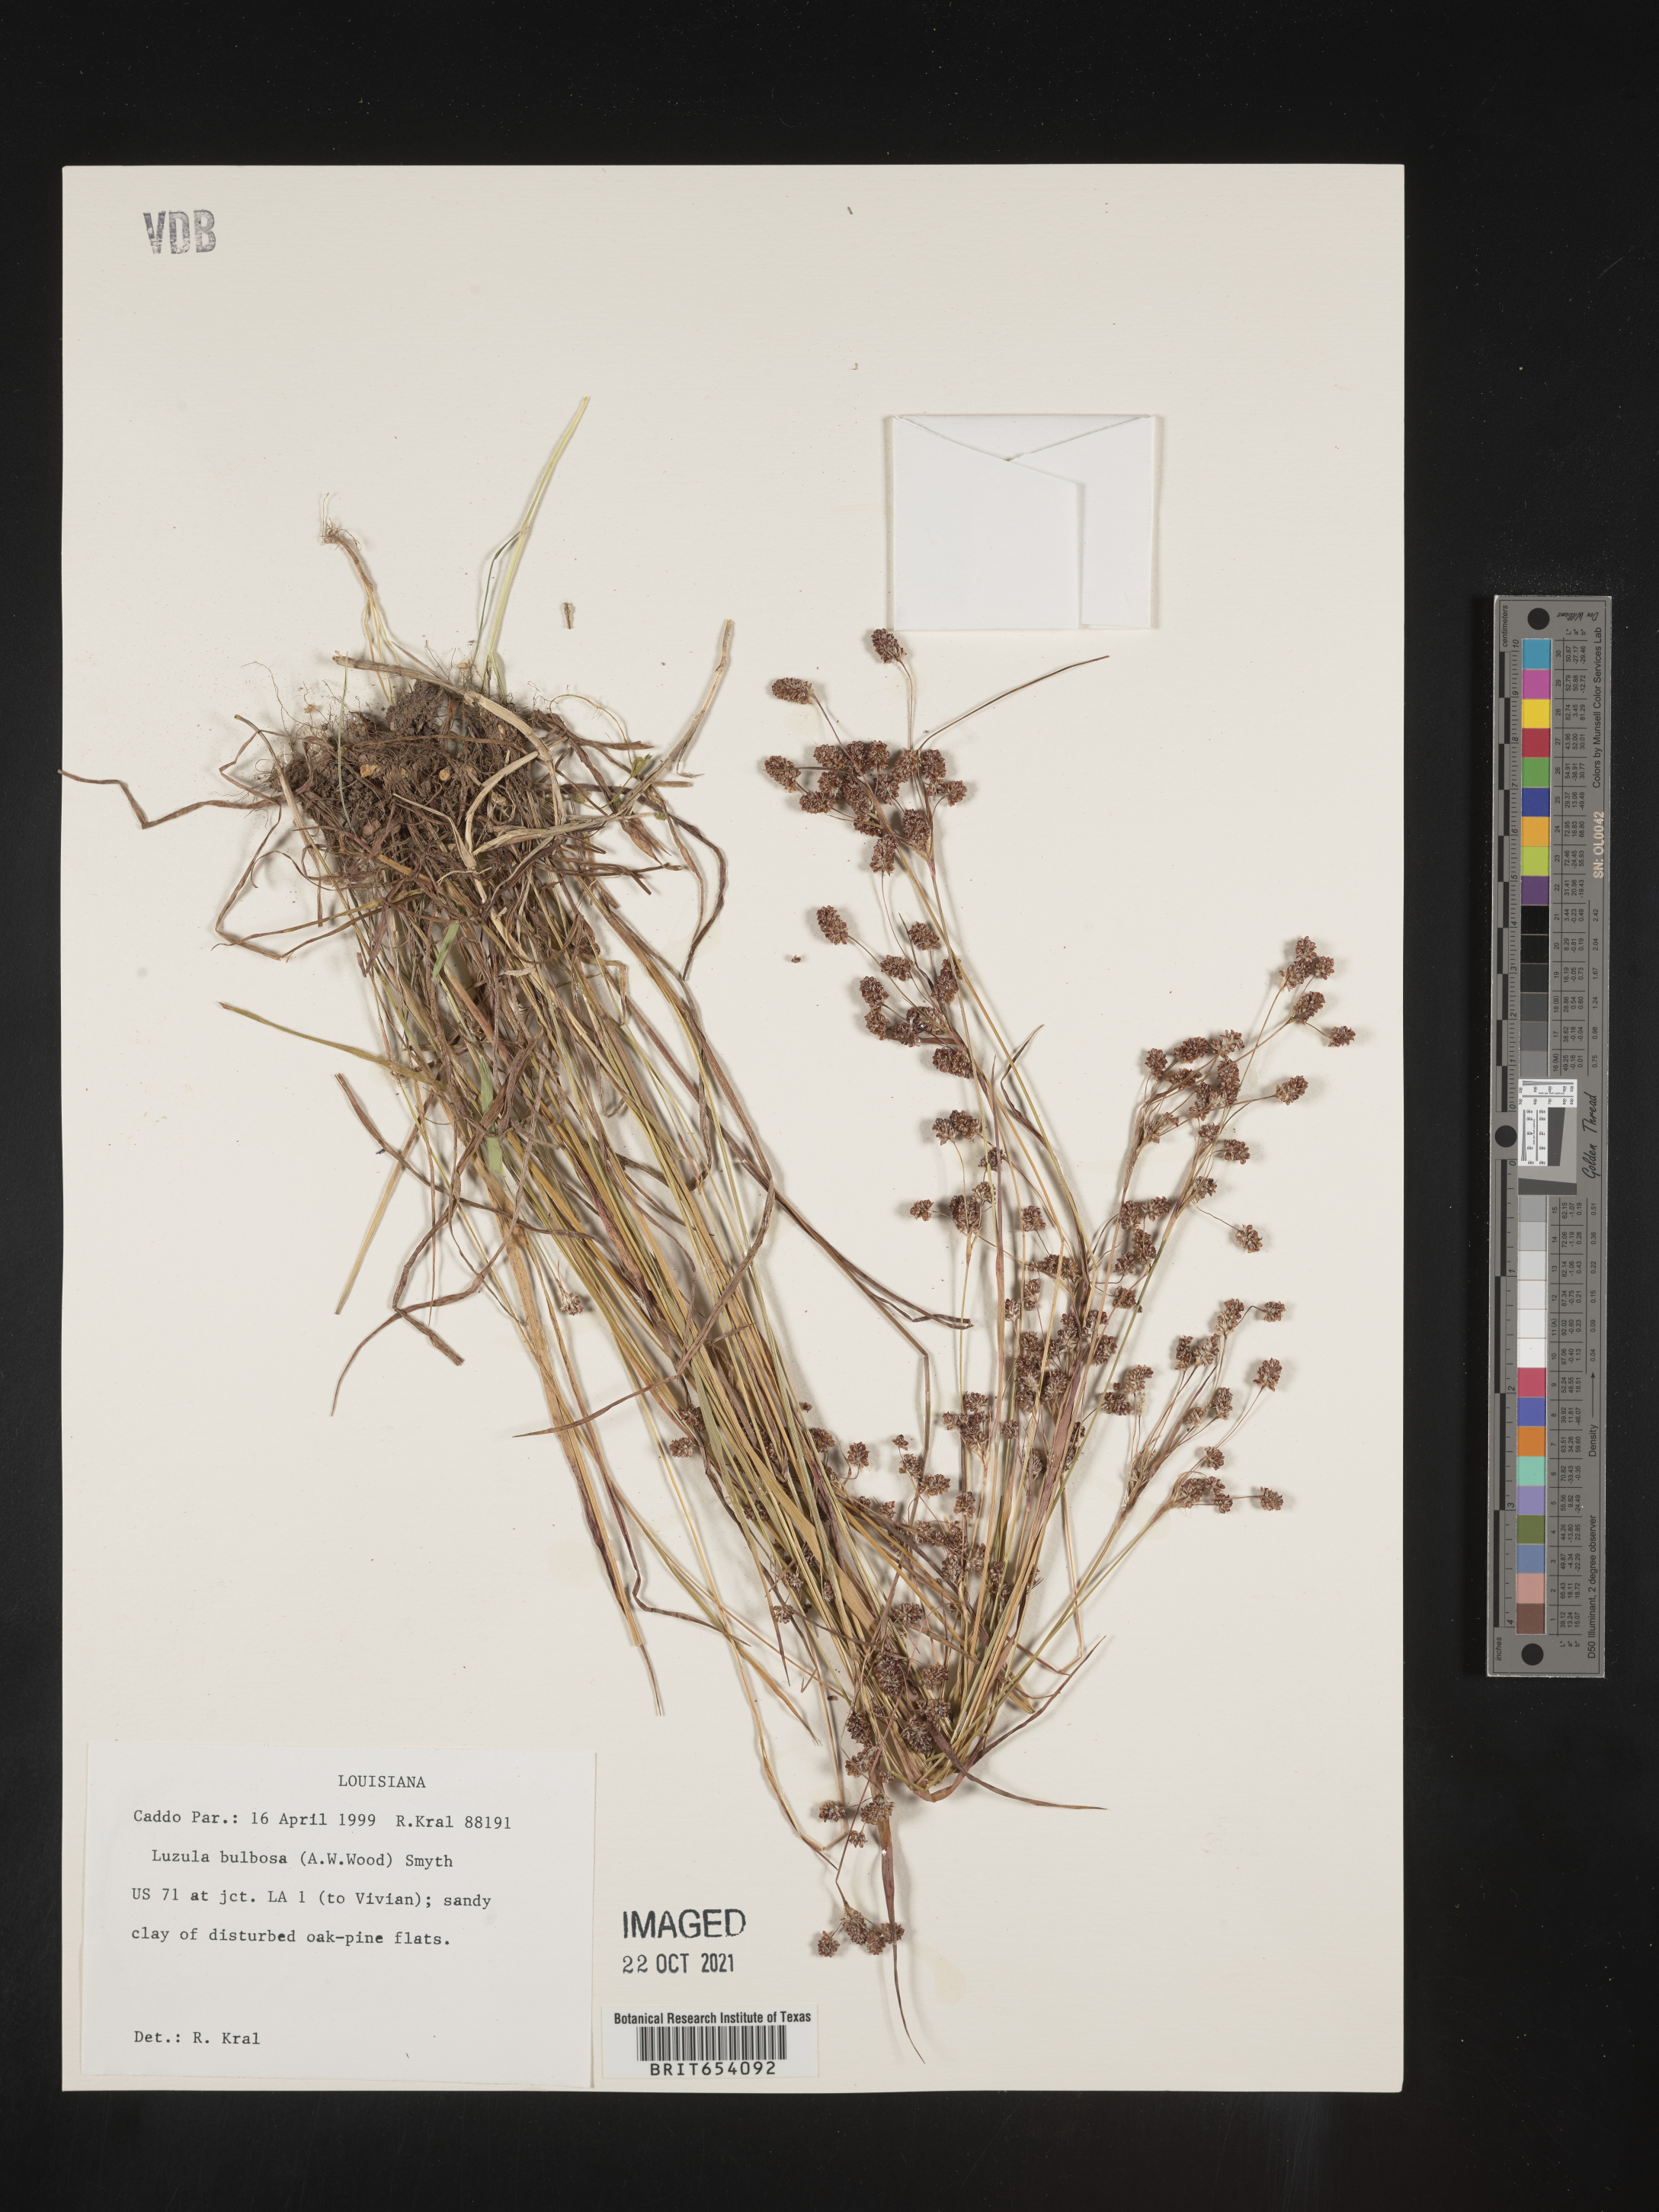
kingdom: Plantae
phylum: Tracheophyta
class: Liliopsida
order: Poales
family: Juncaceae
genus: Luzula
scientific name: Luzula bulbosa
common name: Bulbous woodrush
